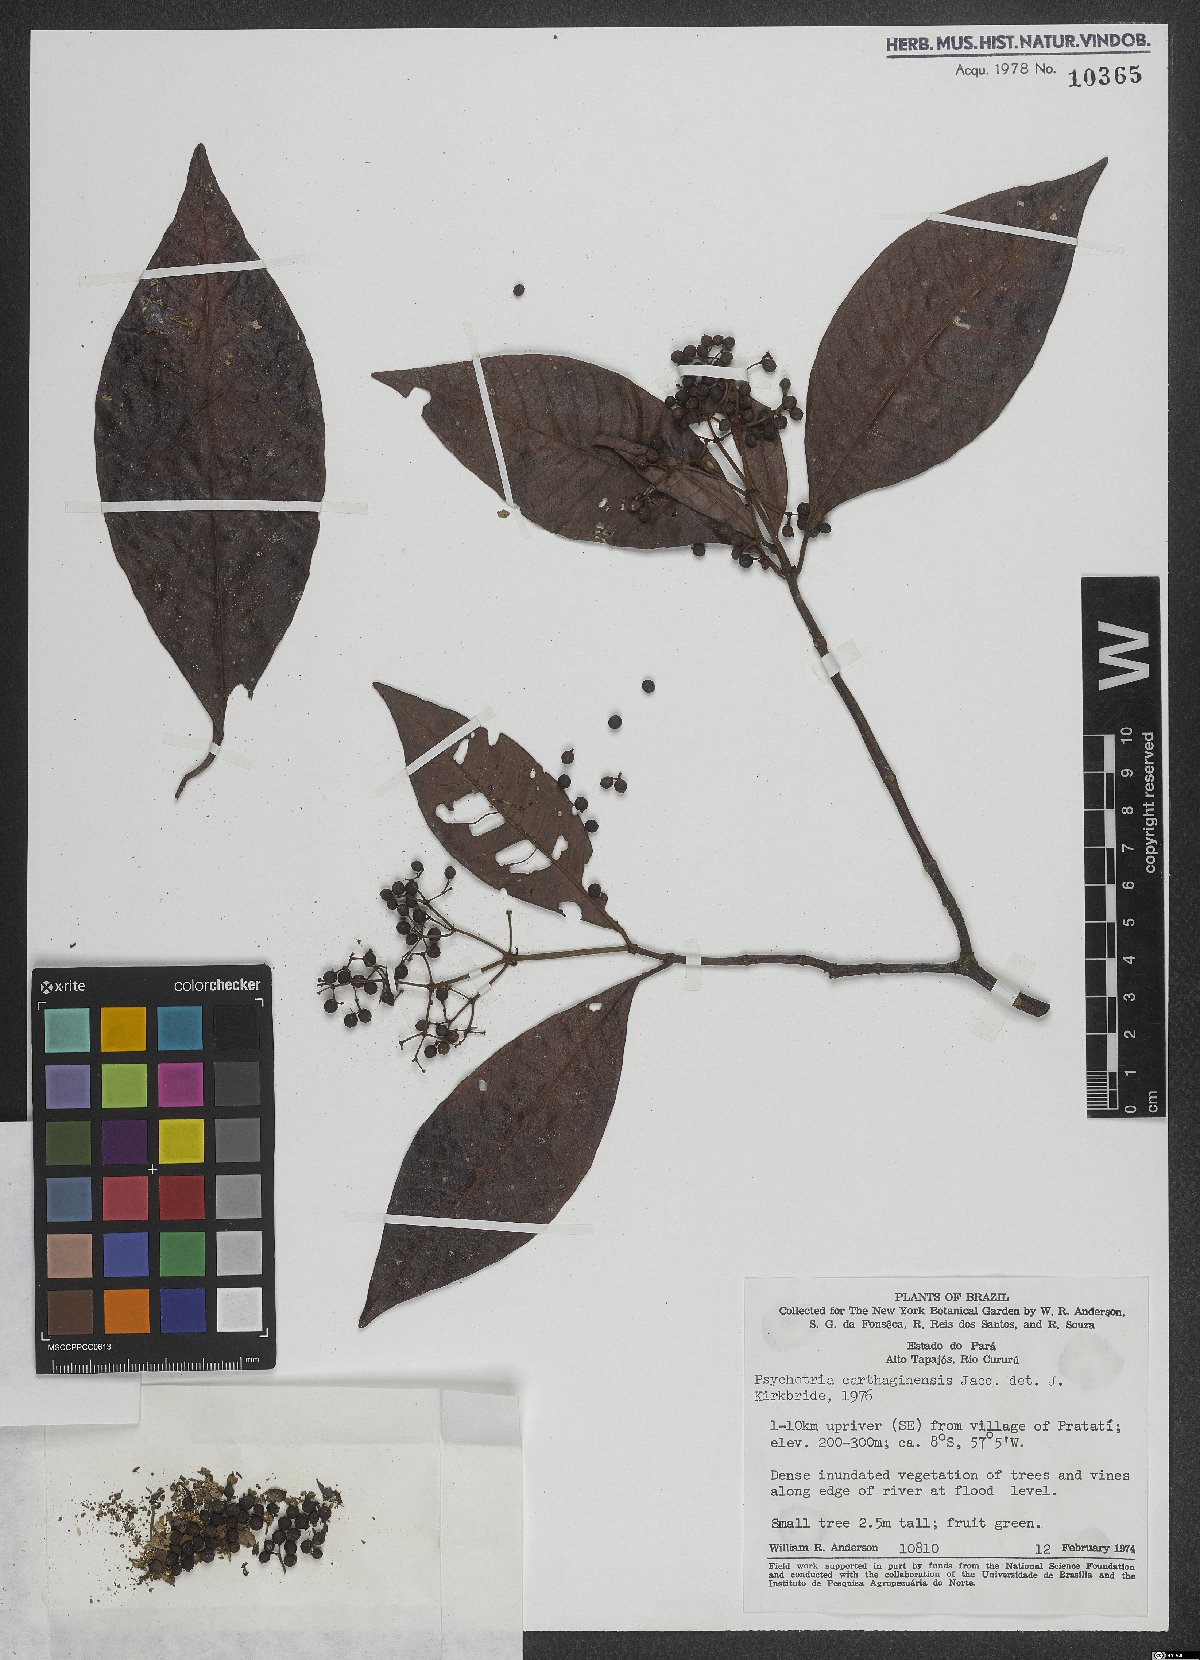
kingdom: Plantae
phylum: Tracheophyta
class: Magnoliopsida
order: Gentianales
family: Rubiaceae
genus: Psychotria
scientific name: Psychotria carthagenensis
